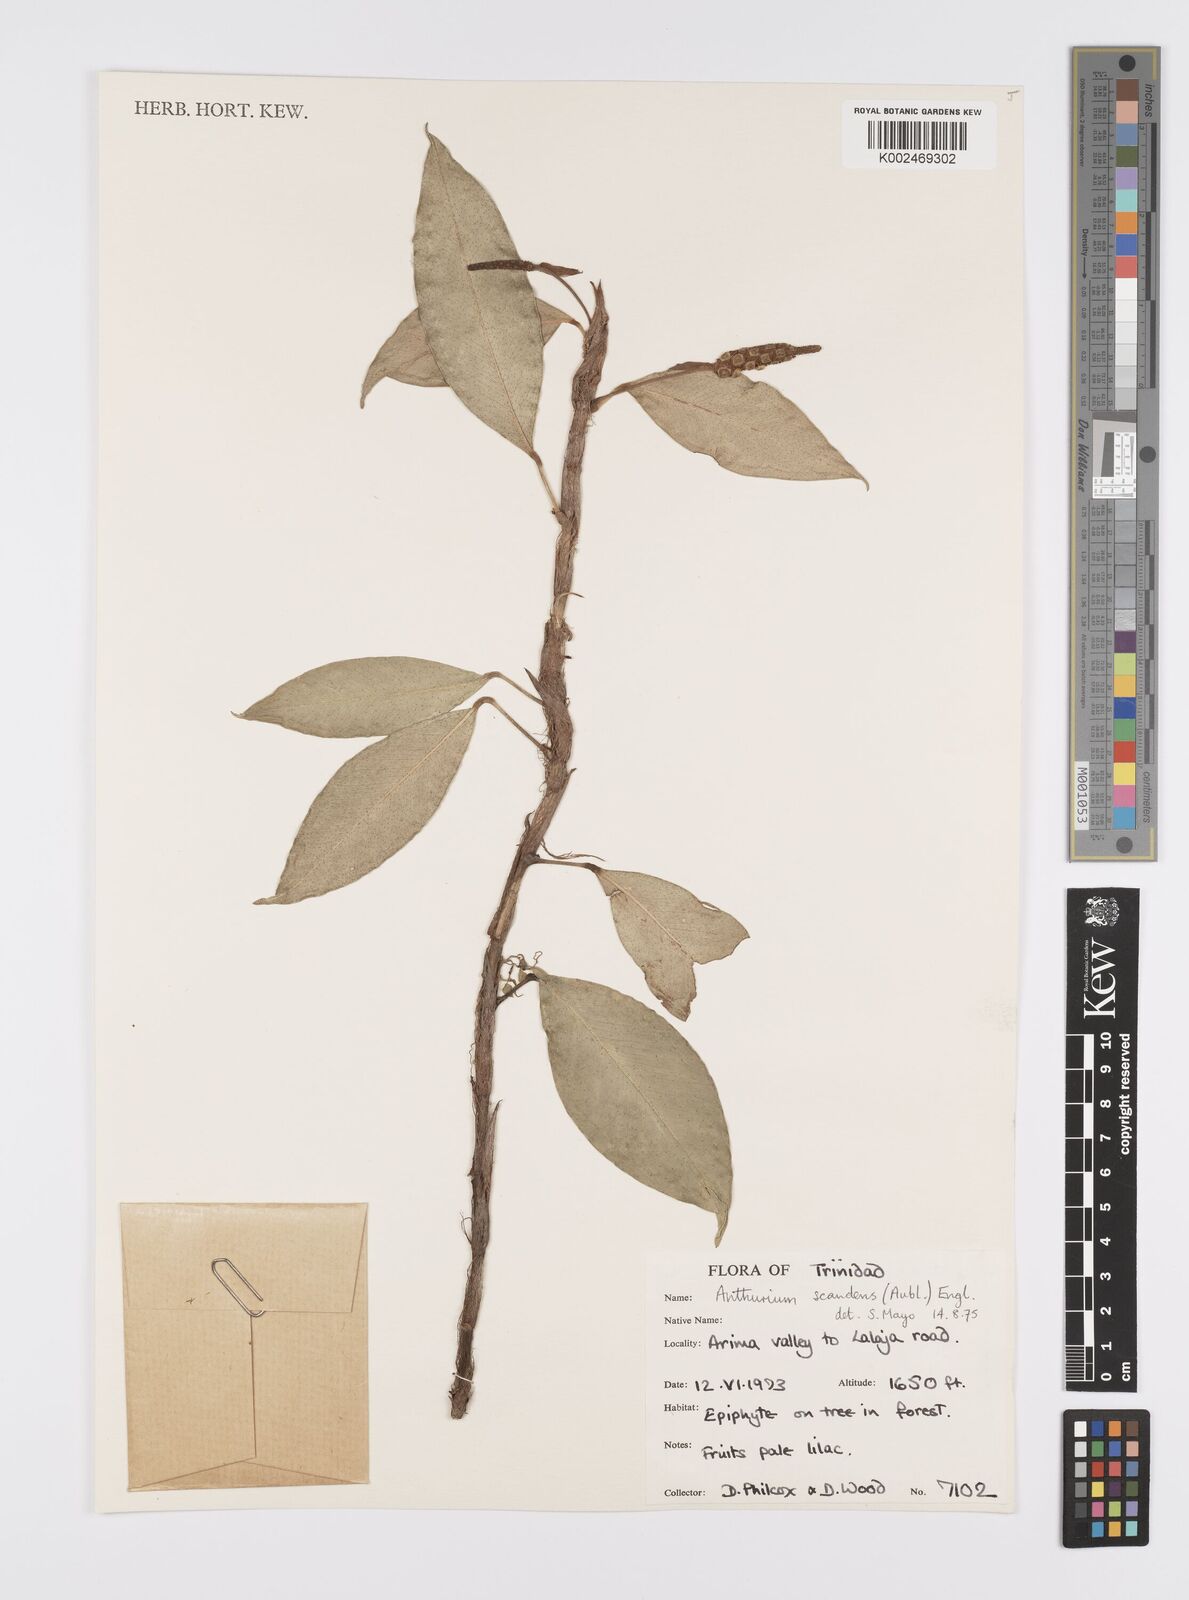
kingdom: Plantae
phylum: Tracheophyta
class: Liliopsida
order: Alismatales
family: Araceae
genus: Anthurium
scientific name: Anthurium scandens
